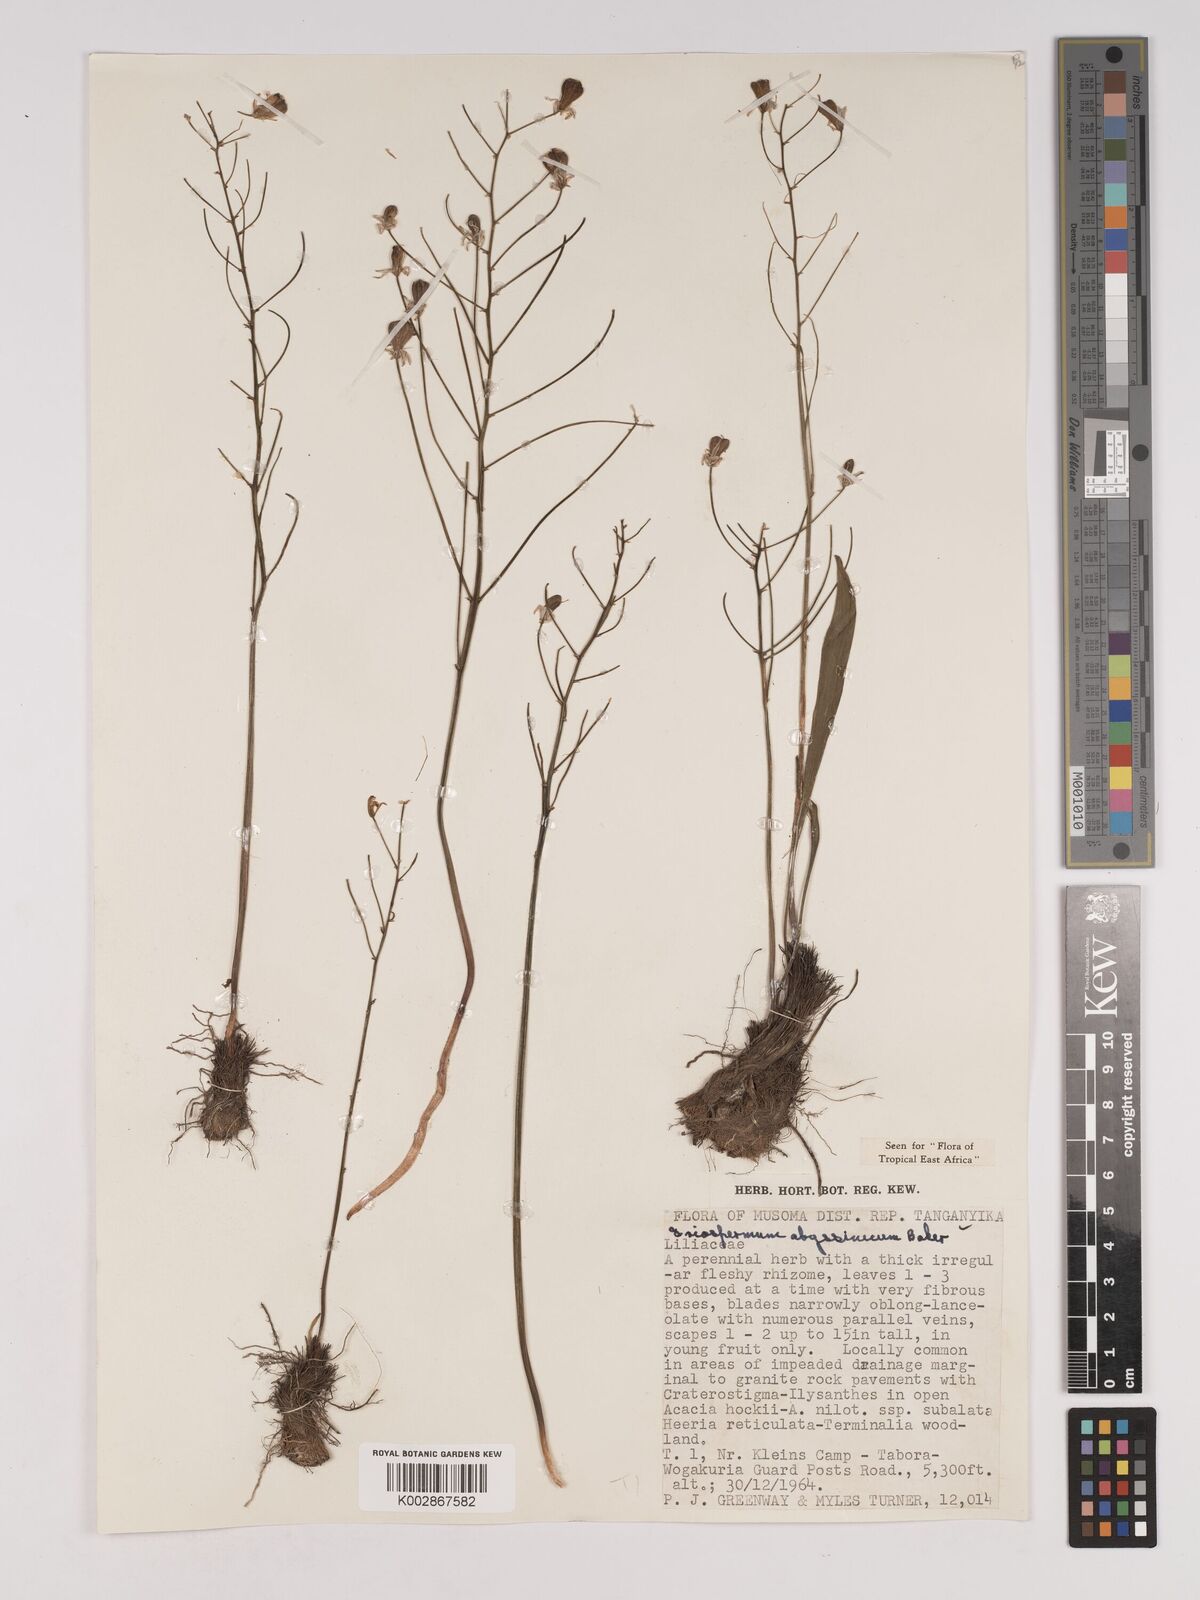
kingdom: Plantae
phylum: Tracheophyta
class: Liliopsida
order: Asparagales
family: Asparagaceae
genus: Eriospermum
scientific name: Eriospermum abyssinicum
